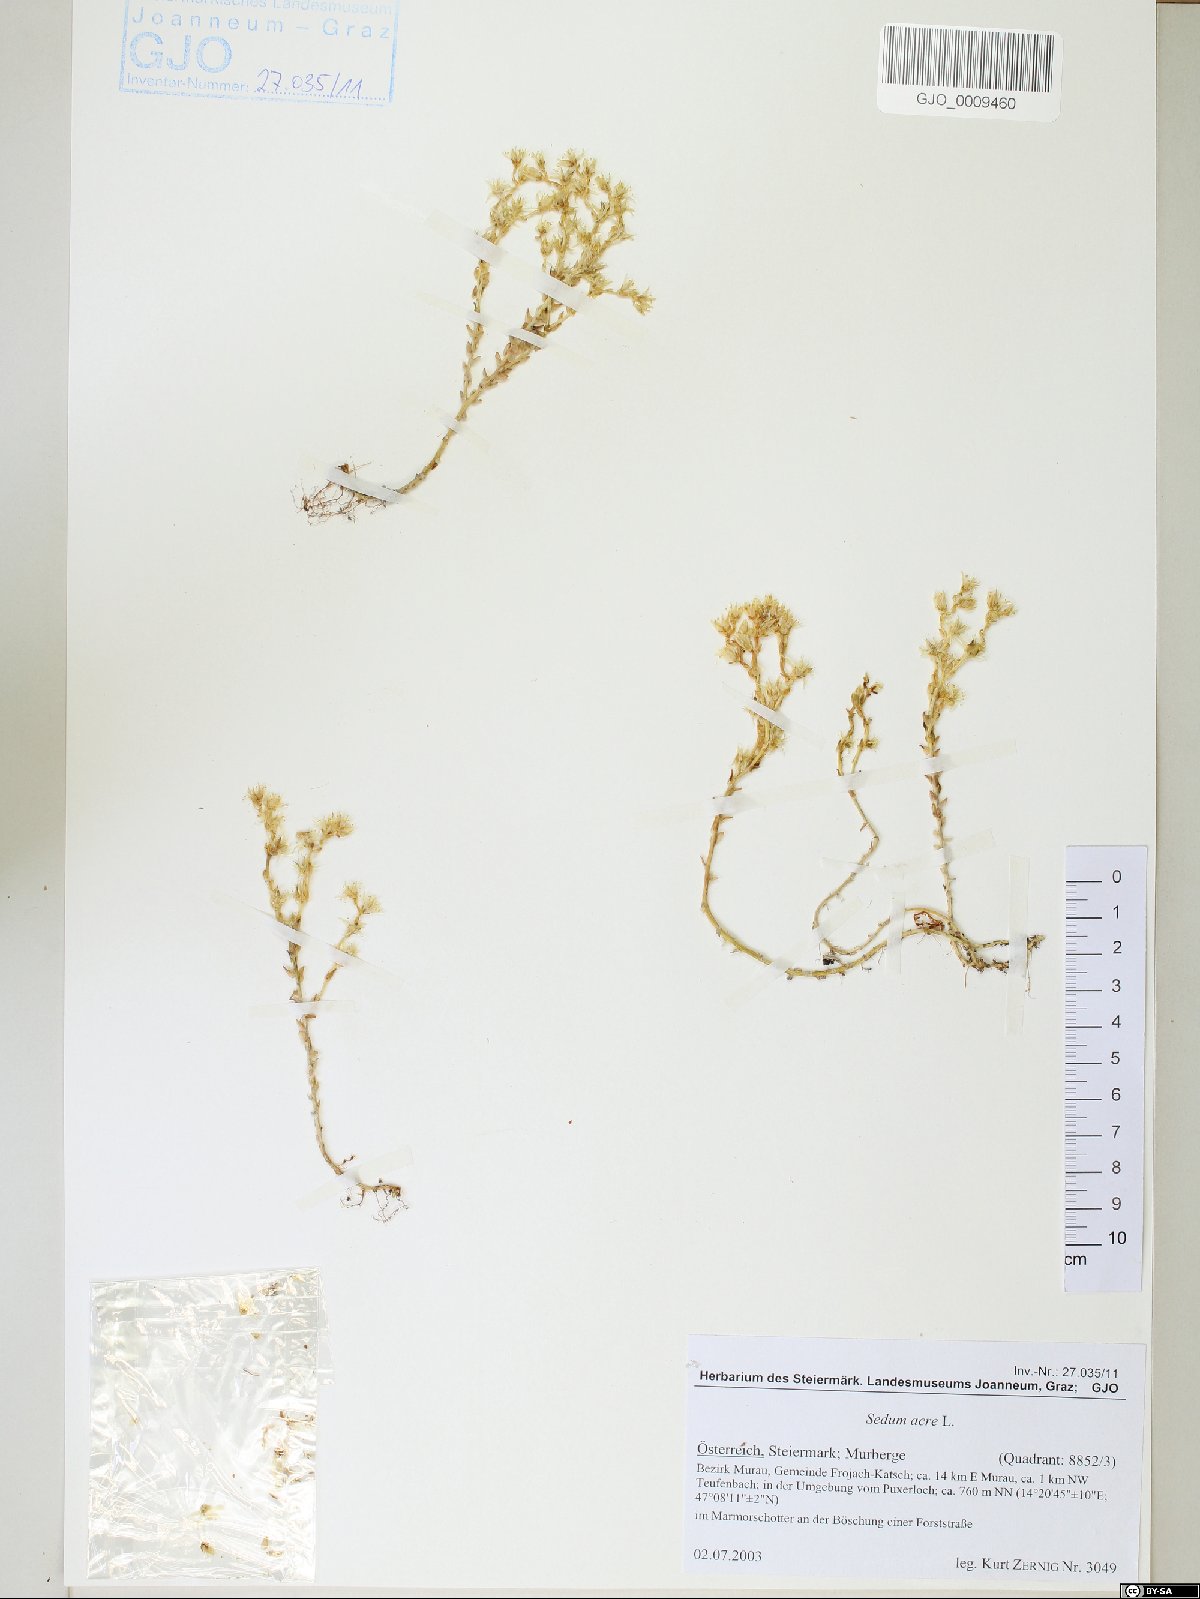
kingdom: Plantae
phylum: Tracheophyta
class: Magnoliopsida
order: Saxifragales
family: Crassulaceae
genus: Sedum
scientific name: Sedum acre
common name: Biting stonecrop
